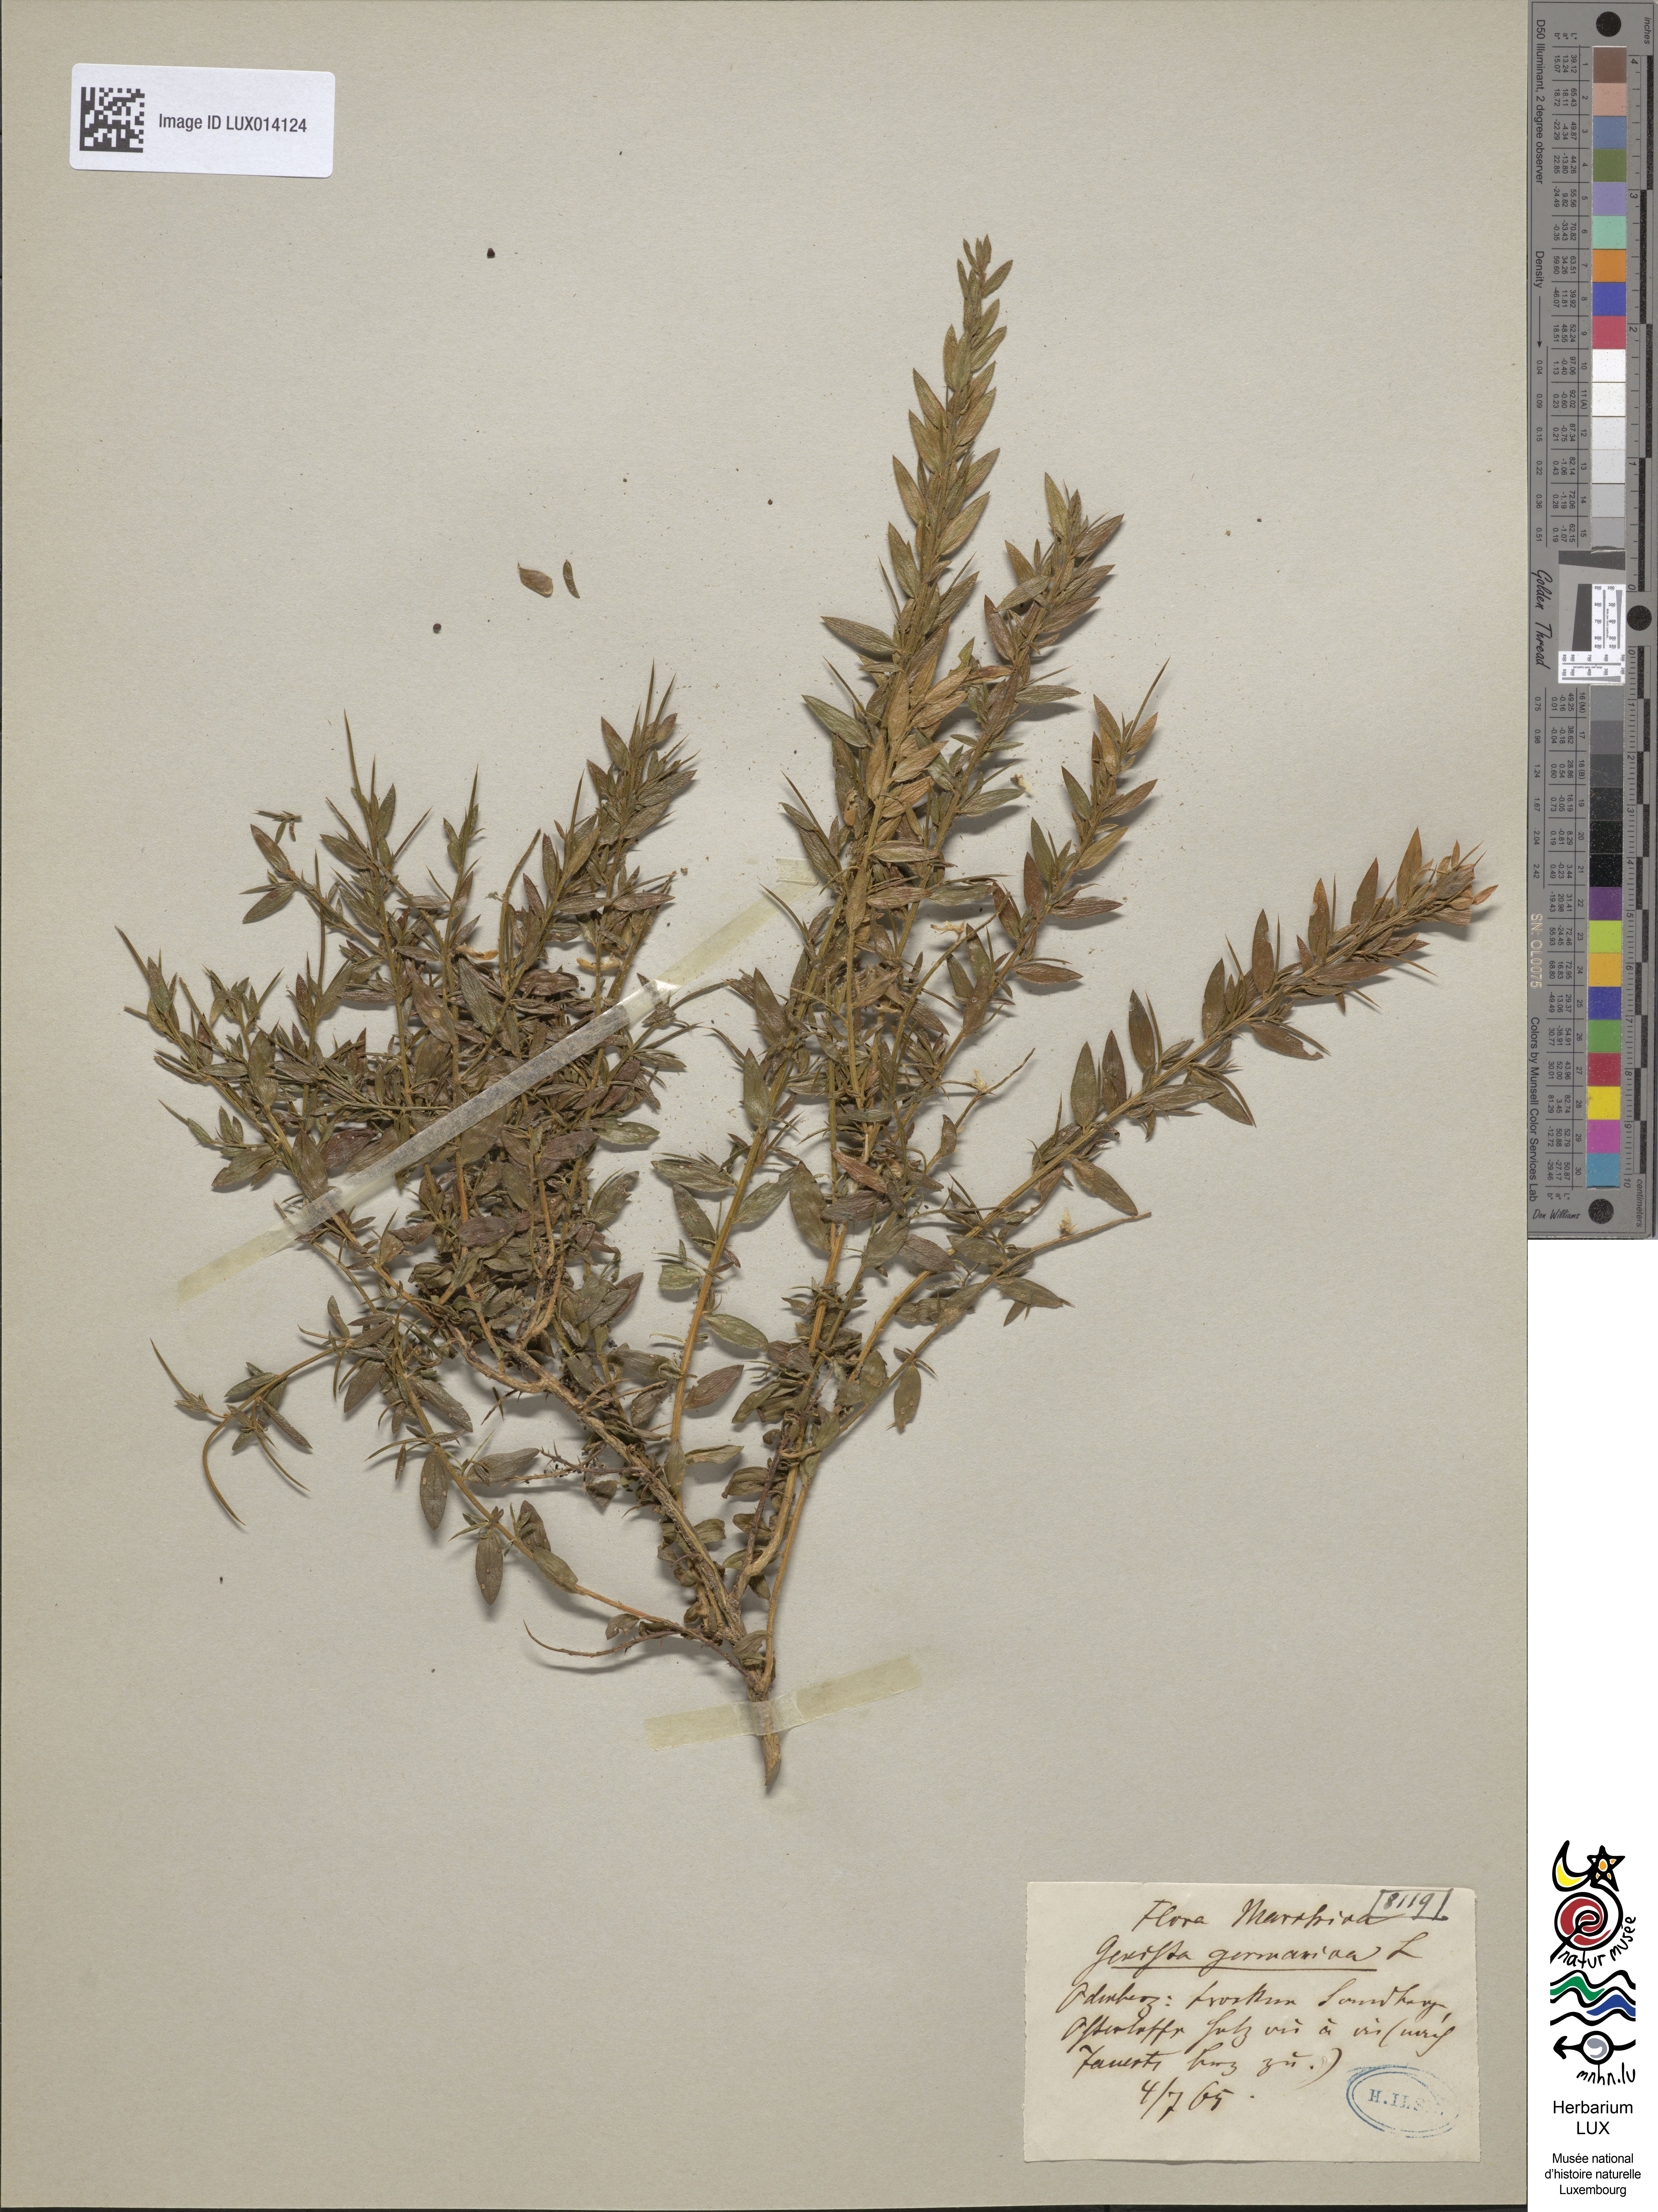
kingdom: Plantae
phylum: Tracheophyta
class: Magnoliopsida
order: Fabales
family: Fabaceae
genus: Genista
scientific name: Genista germanica
